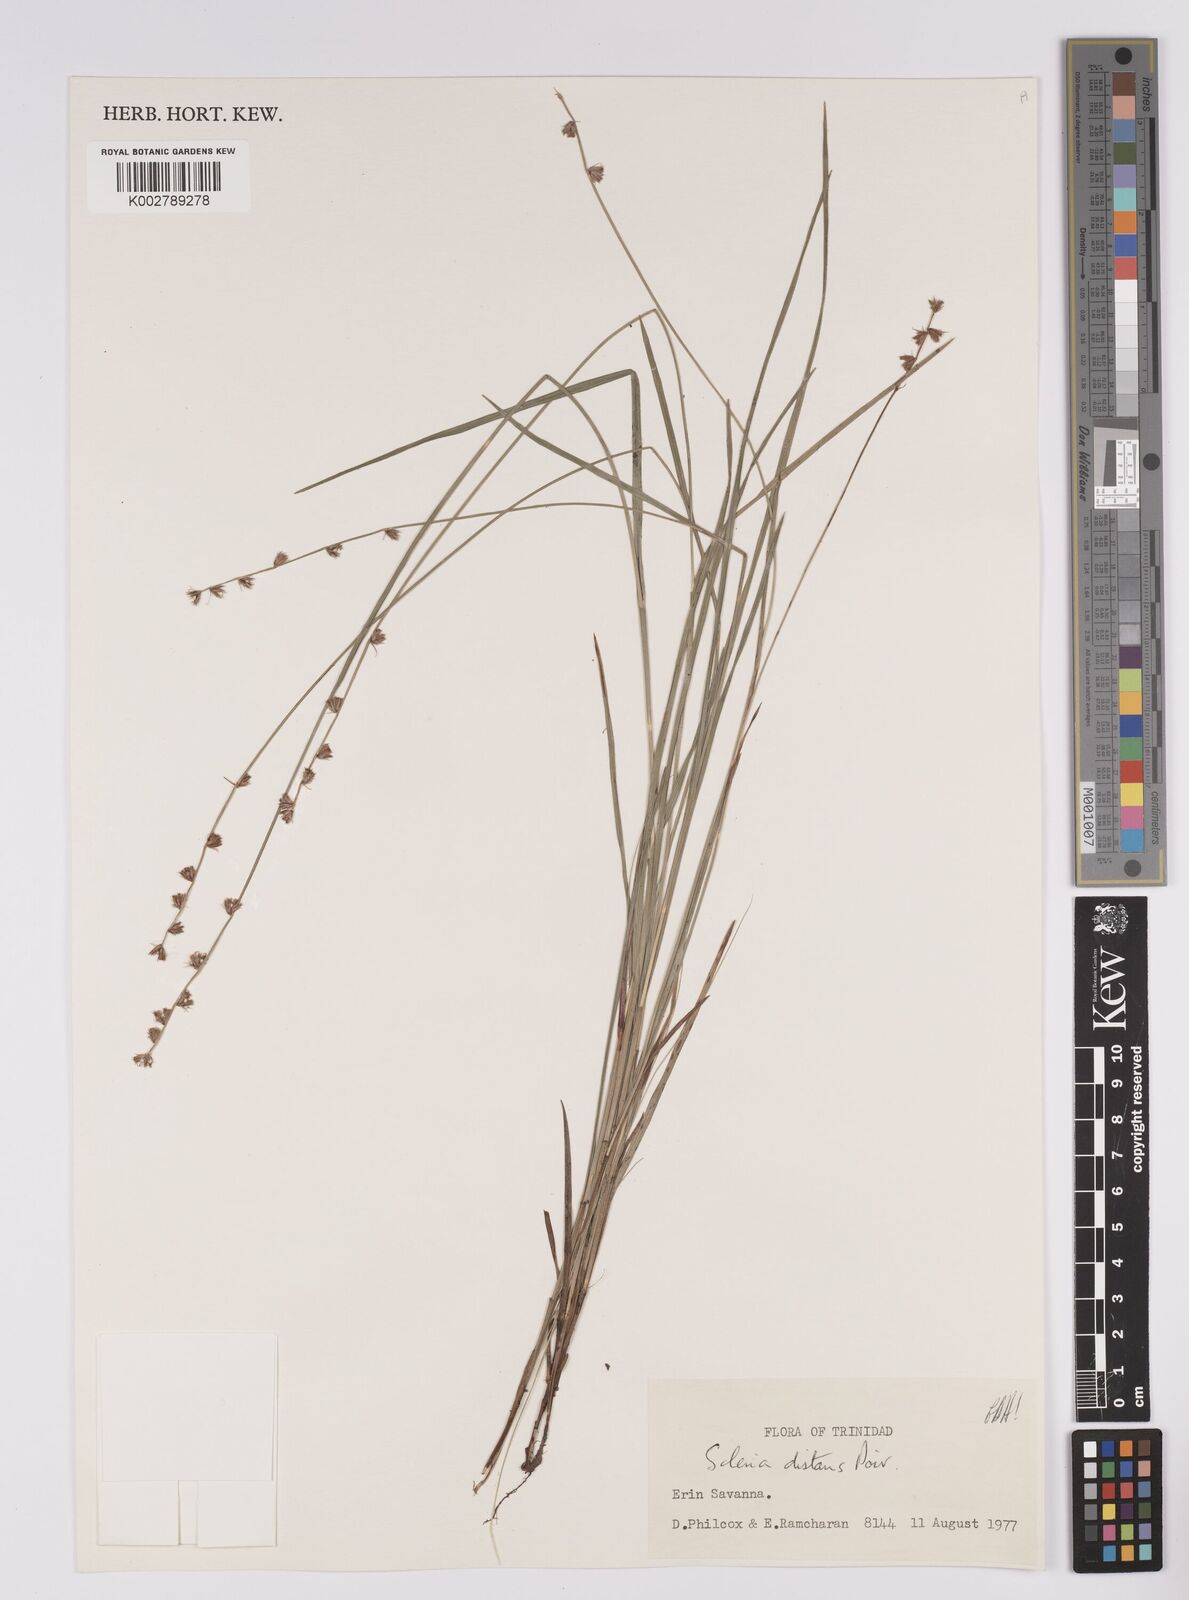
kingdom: Plantae
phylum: Tracheophyta
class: Liliopsida
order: Poales
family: Cyperaceae
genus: Scleria
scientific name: Scleria distans
